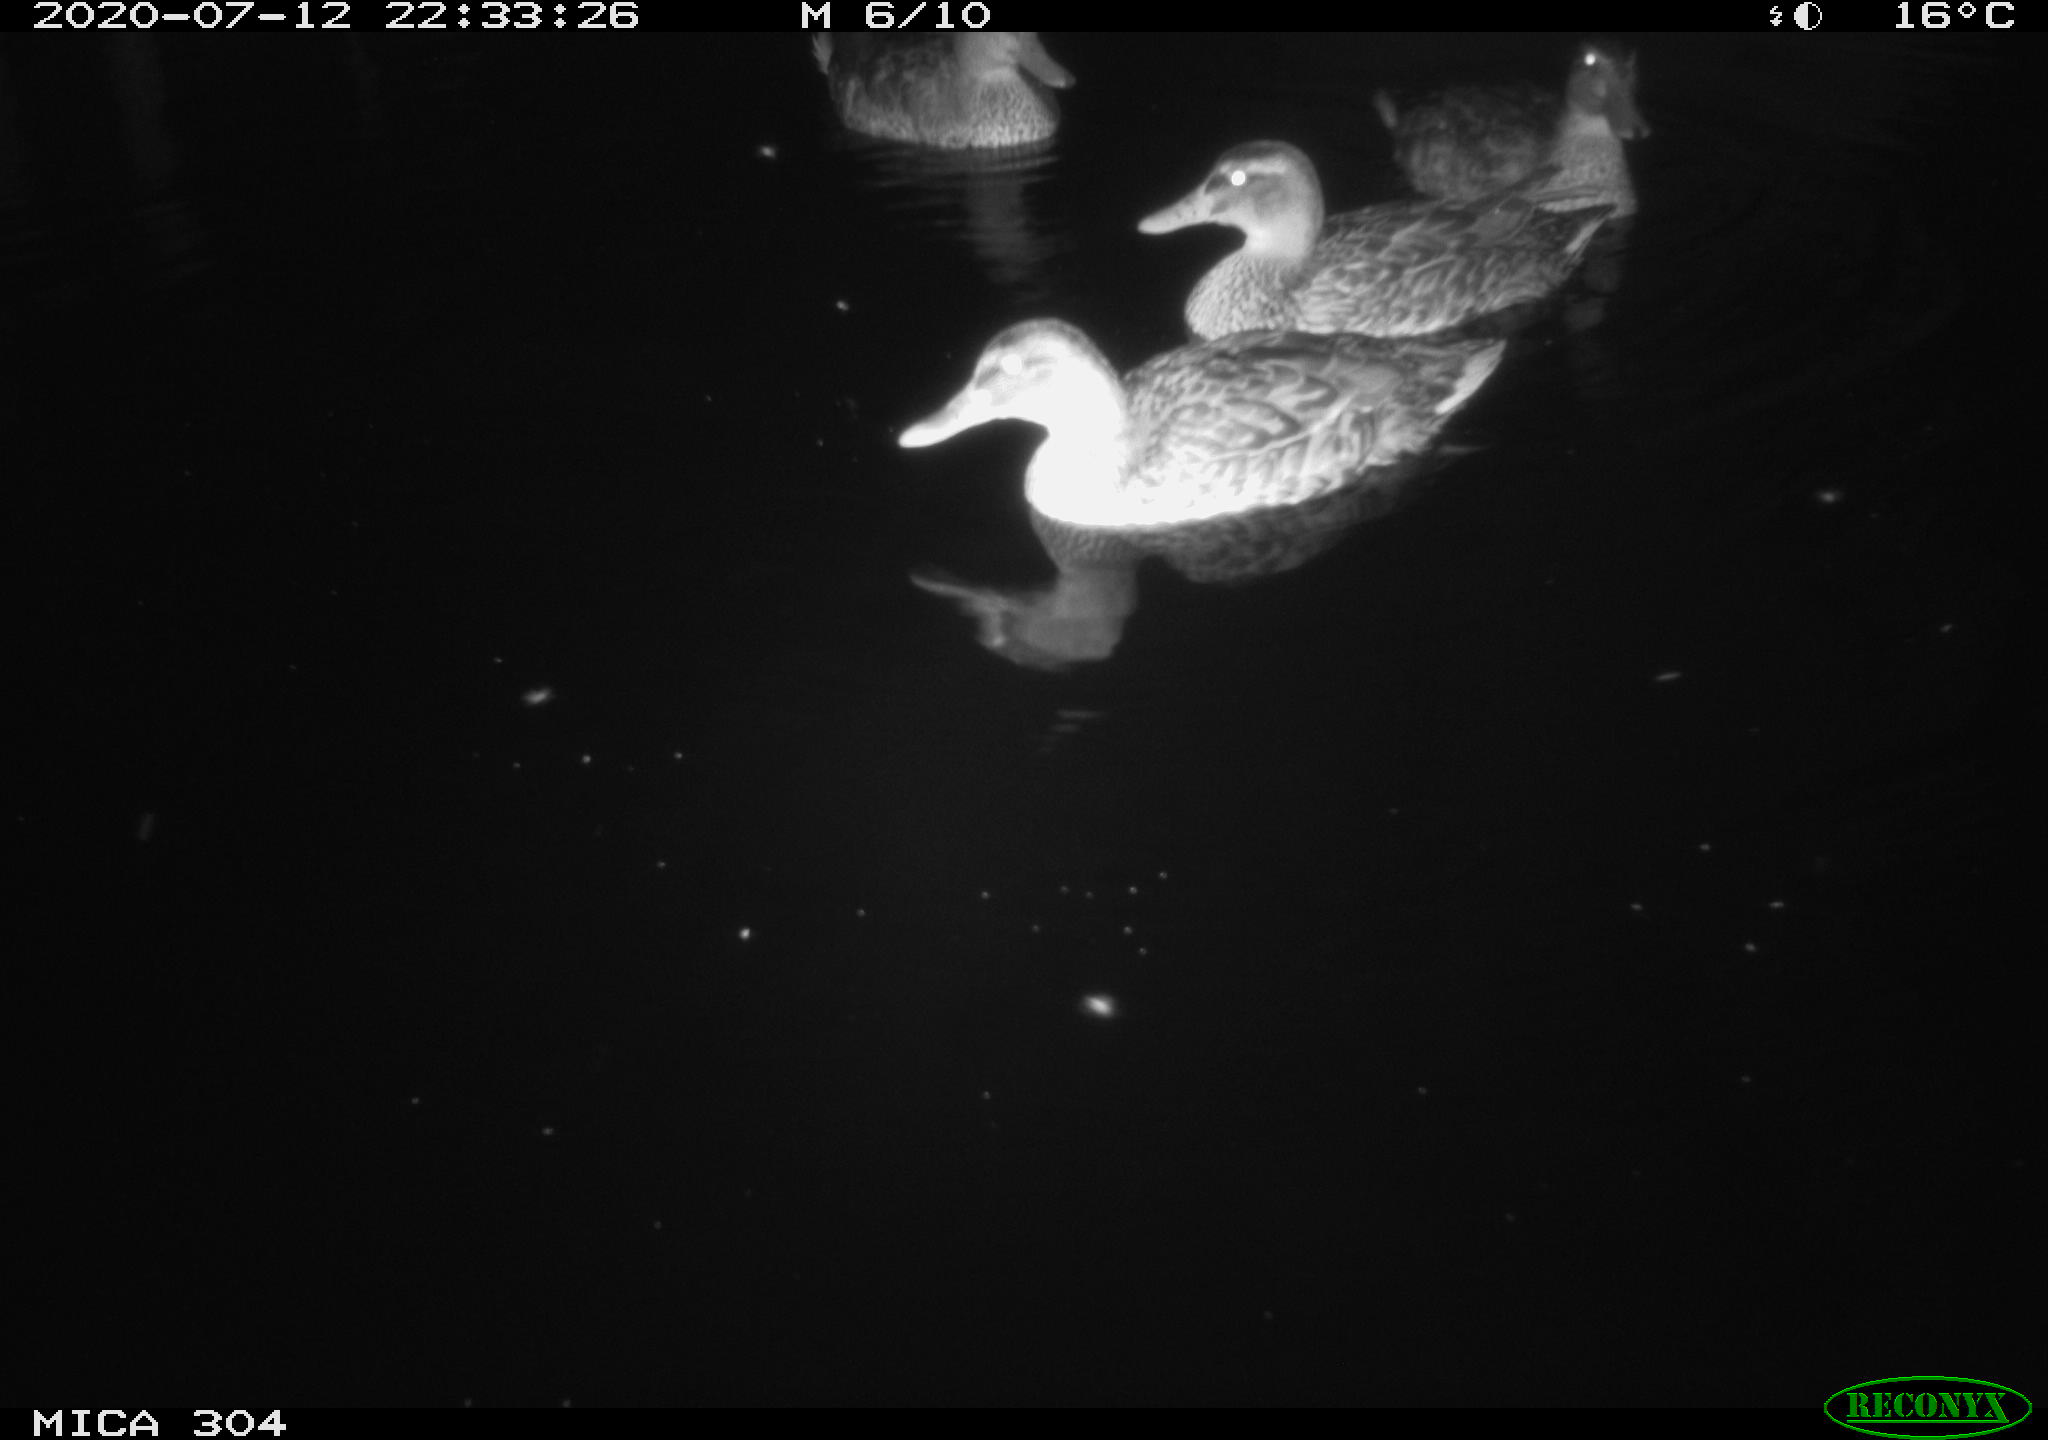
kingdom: Animalia
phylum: Chordata
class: Aves
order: Anseriformes
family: Anatidae
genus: Anas
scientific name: Anas platyrhynchos
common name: Mallard
